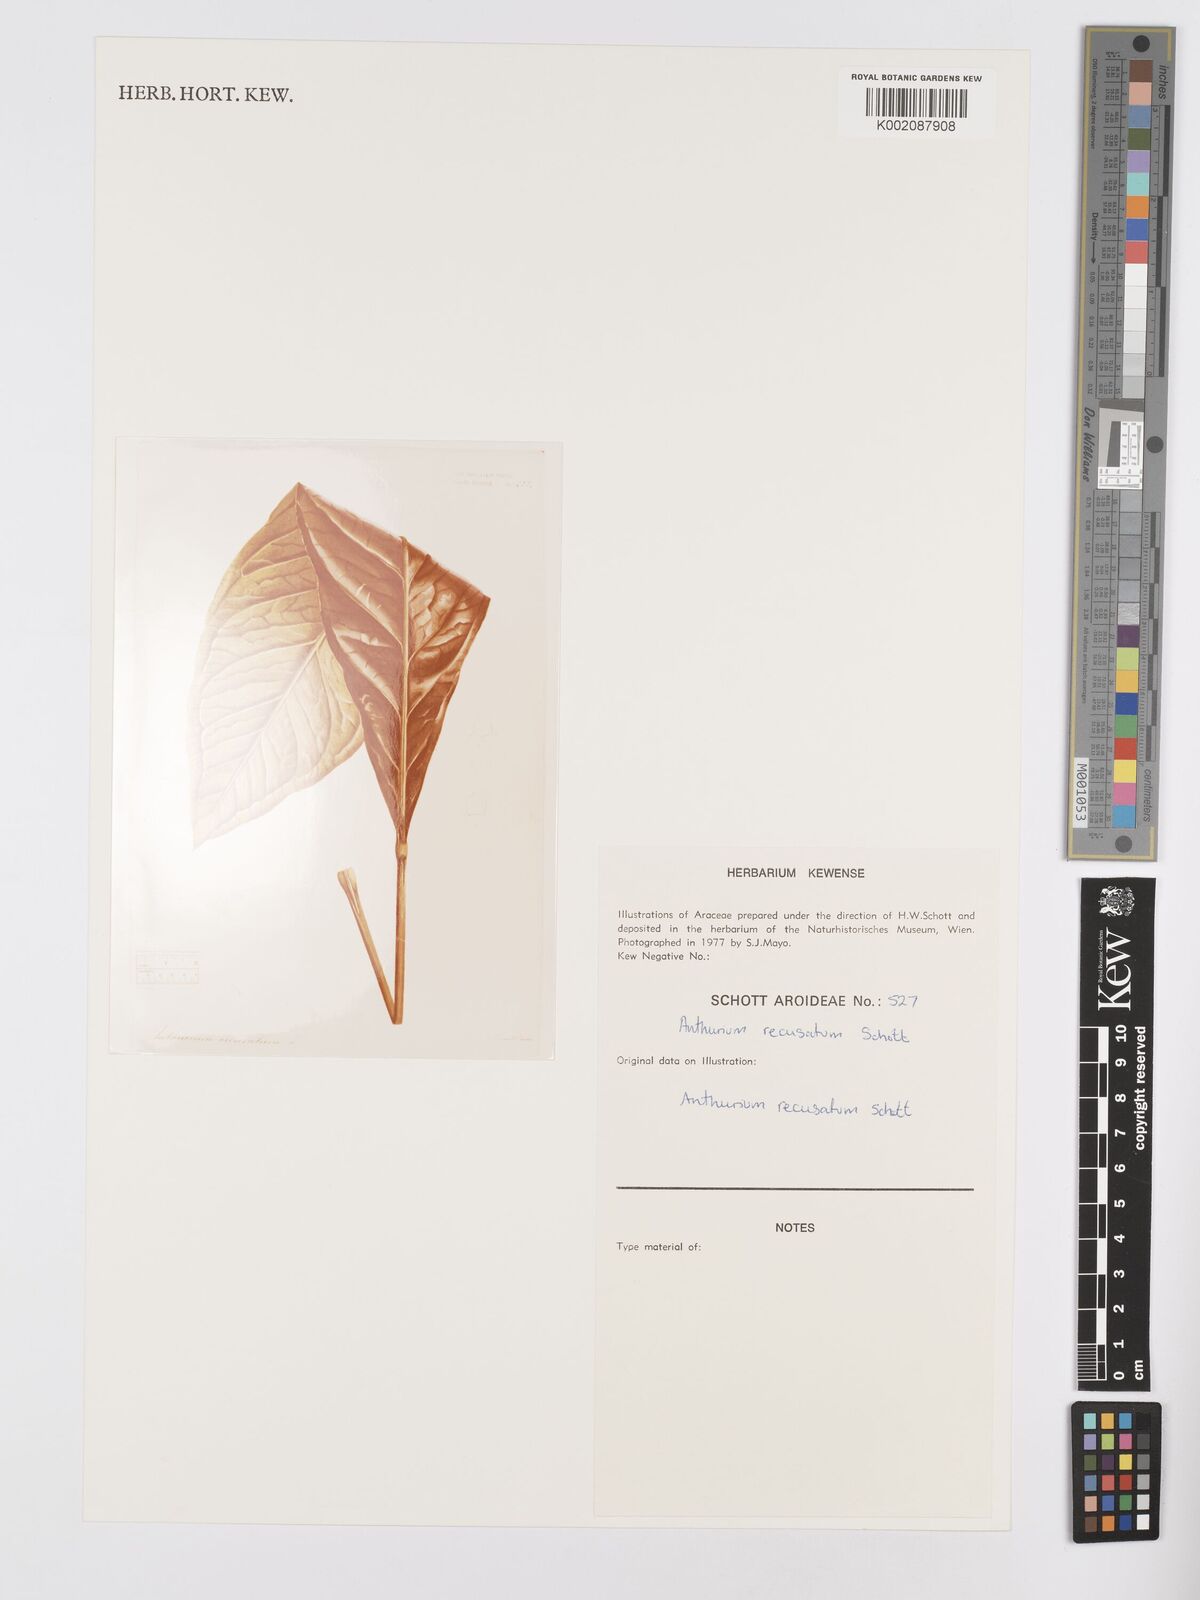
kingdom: Plantae
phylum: Tracheophyta
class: Liliopsida
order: Alismatales
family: Araceae
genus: Anthurium
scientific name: Anthurium fendleri
